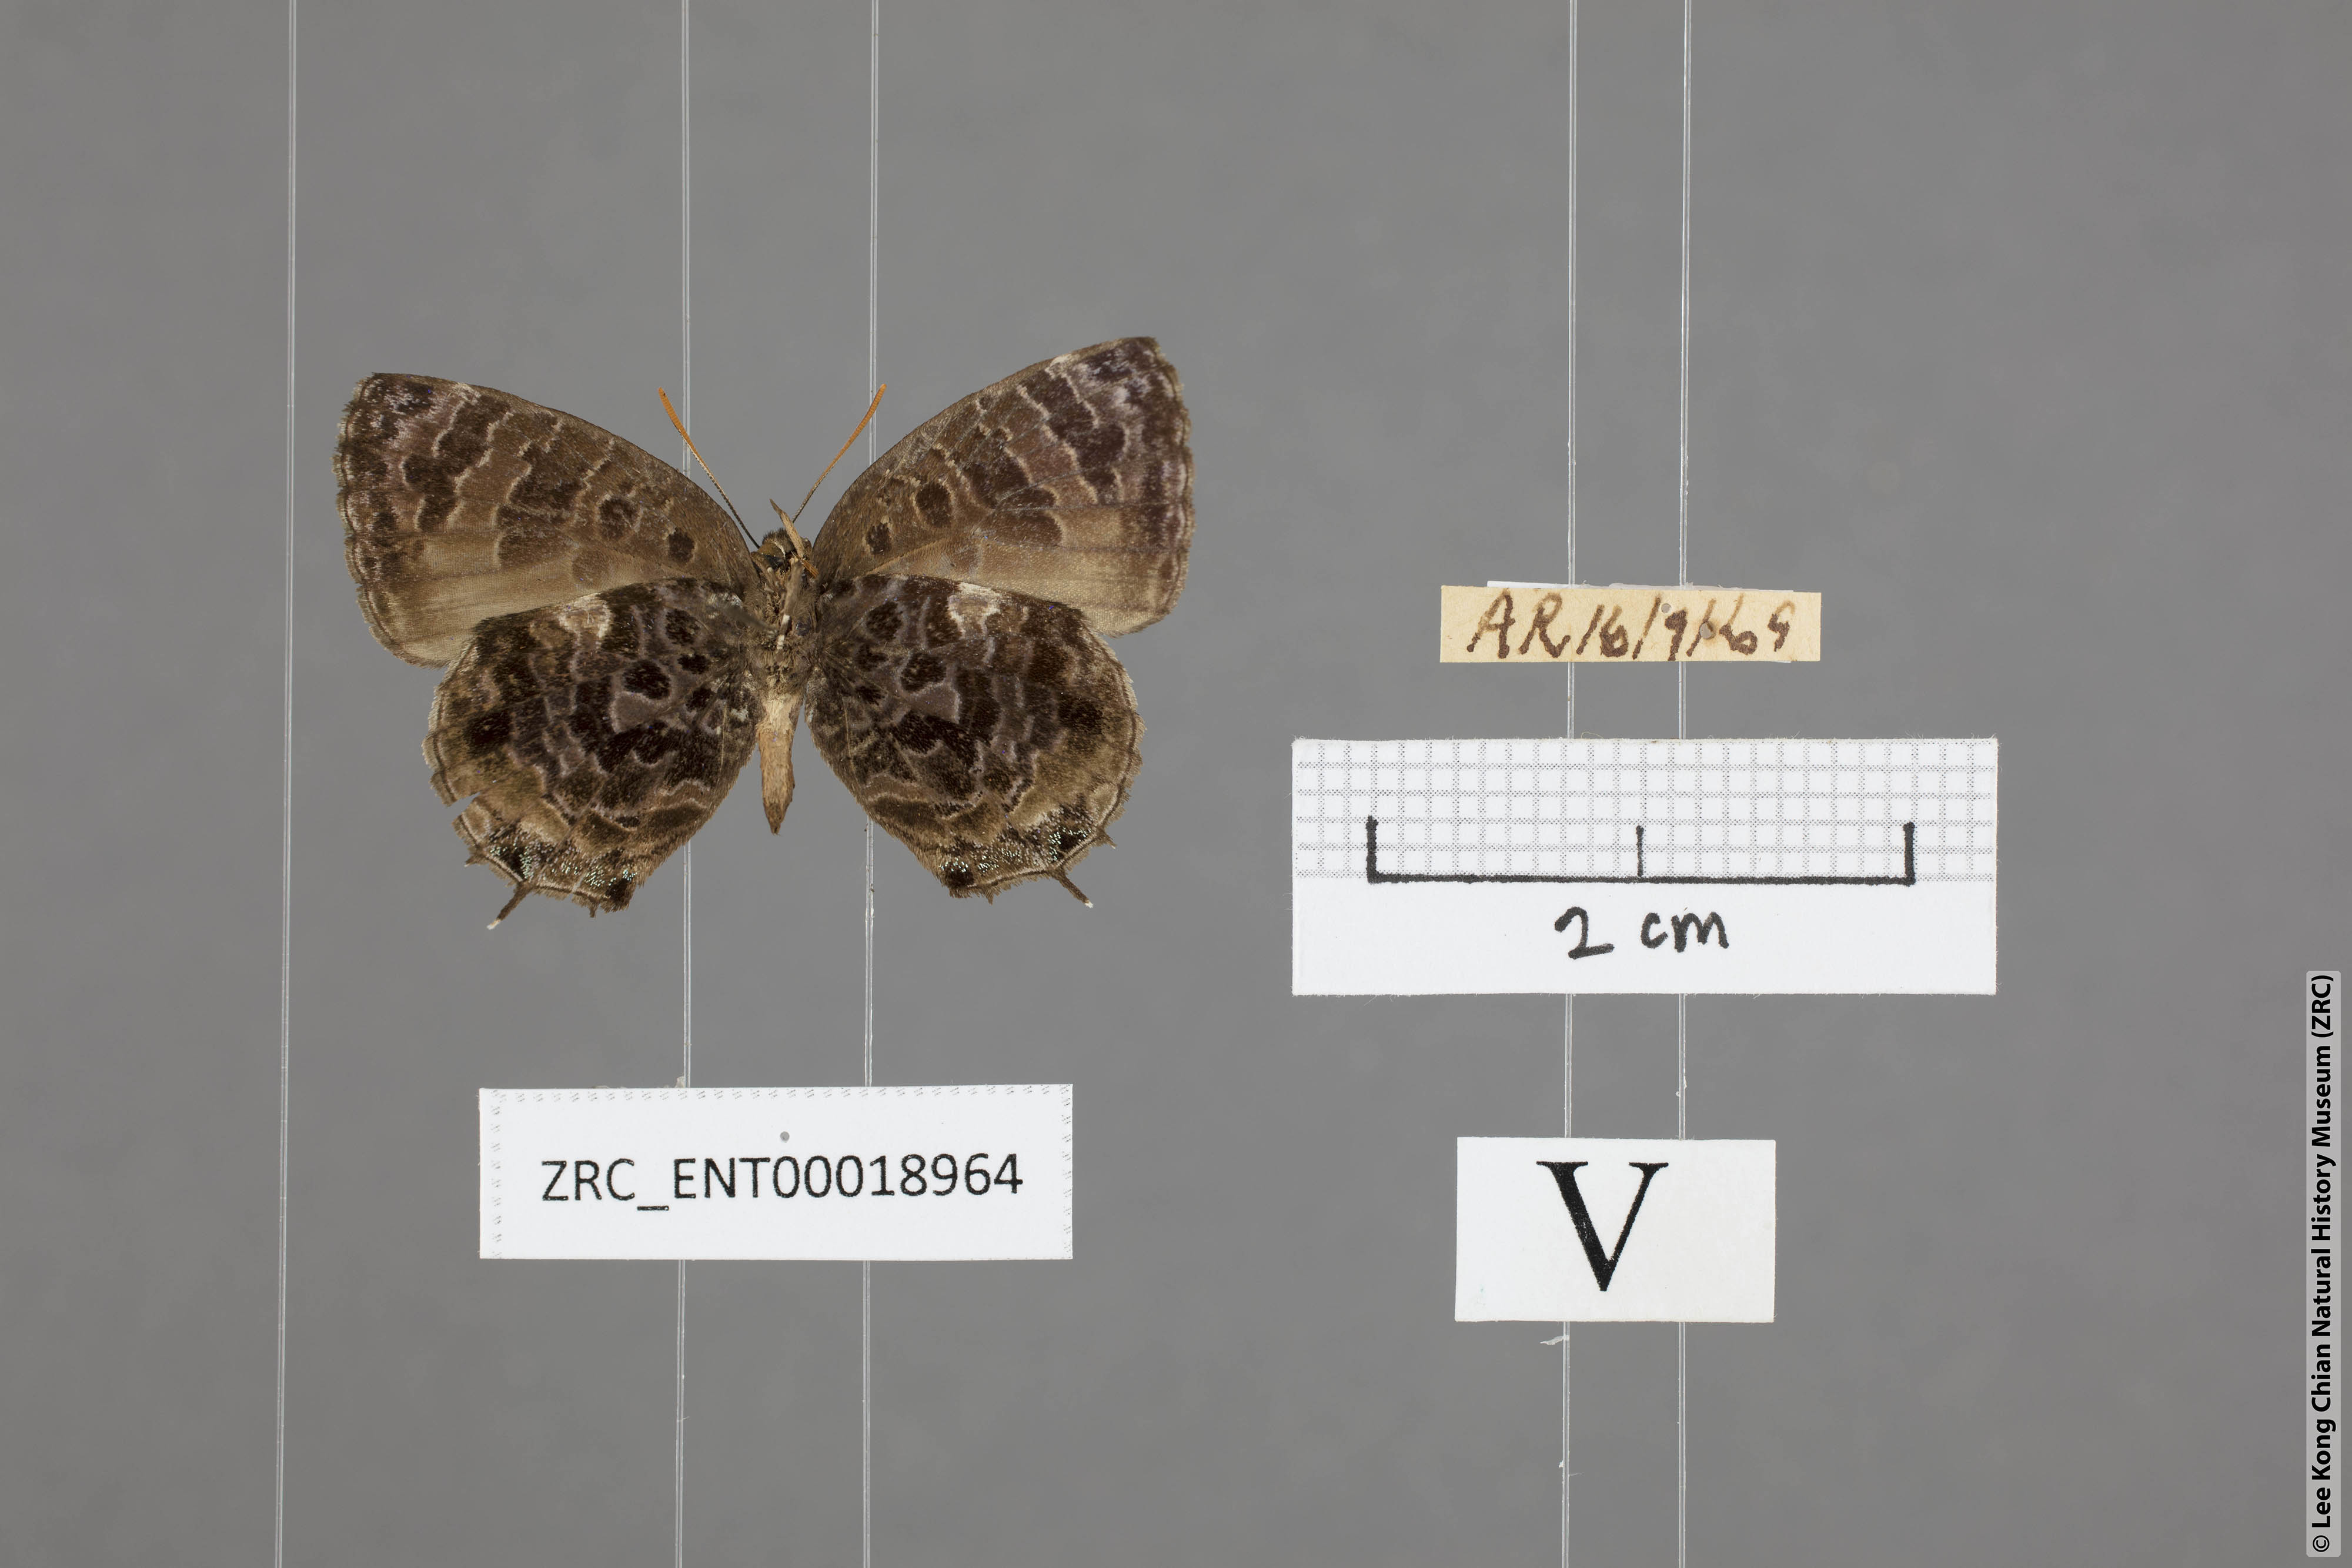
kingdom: Animalia
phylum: Arthropoda
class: Insecta
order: Lepidoptera
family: Lycaenidae
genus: Arhopala
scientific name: Arhopala abseus
